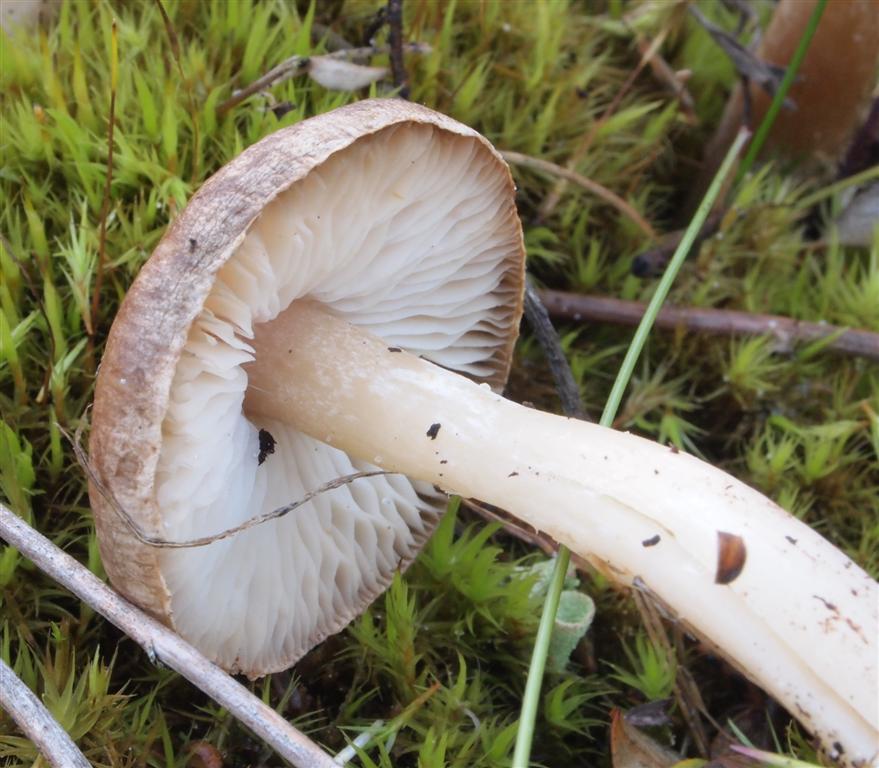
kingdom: Fungi
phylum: Basidiomycota
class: Agaricomycetes
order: Agaricales
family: Tricholomataceae
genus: Tricholoma
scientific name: Tricholoma cingulatum
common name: ring-ridderhat
